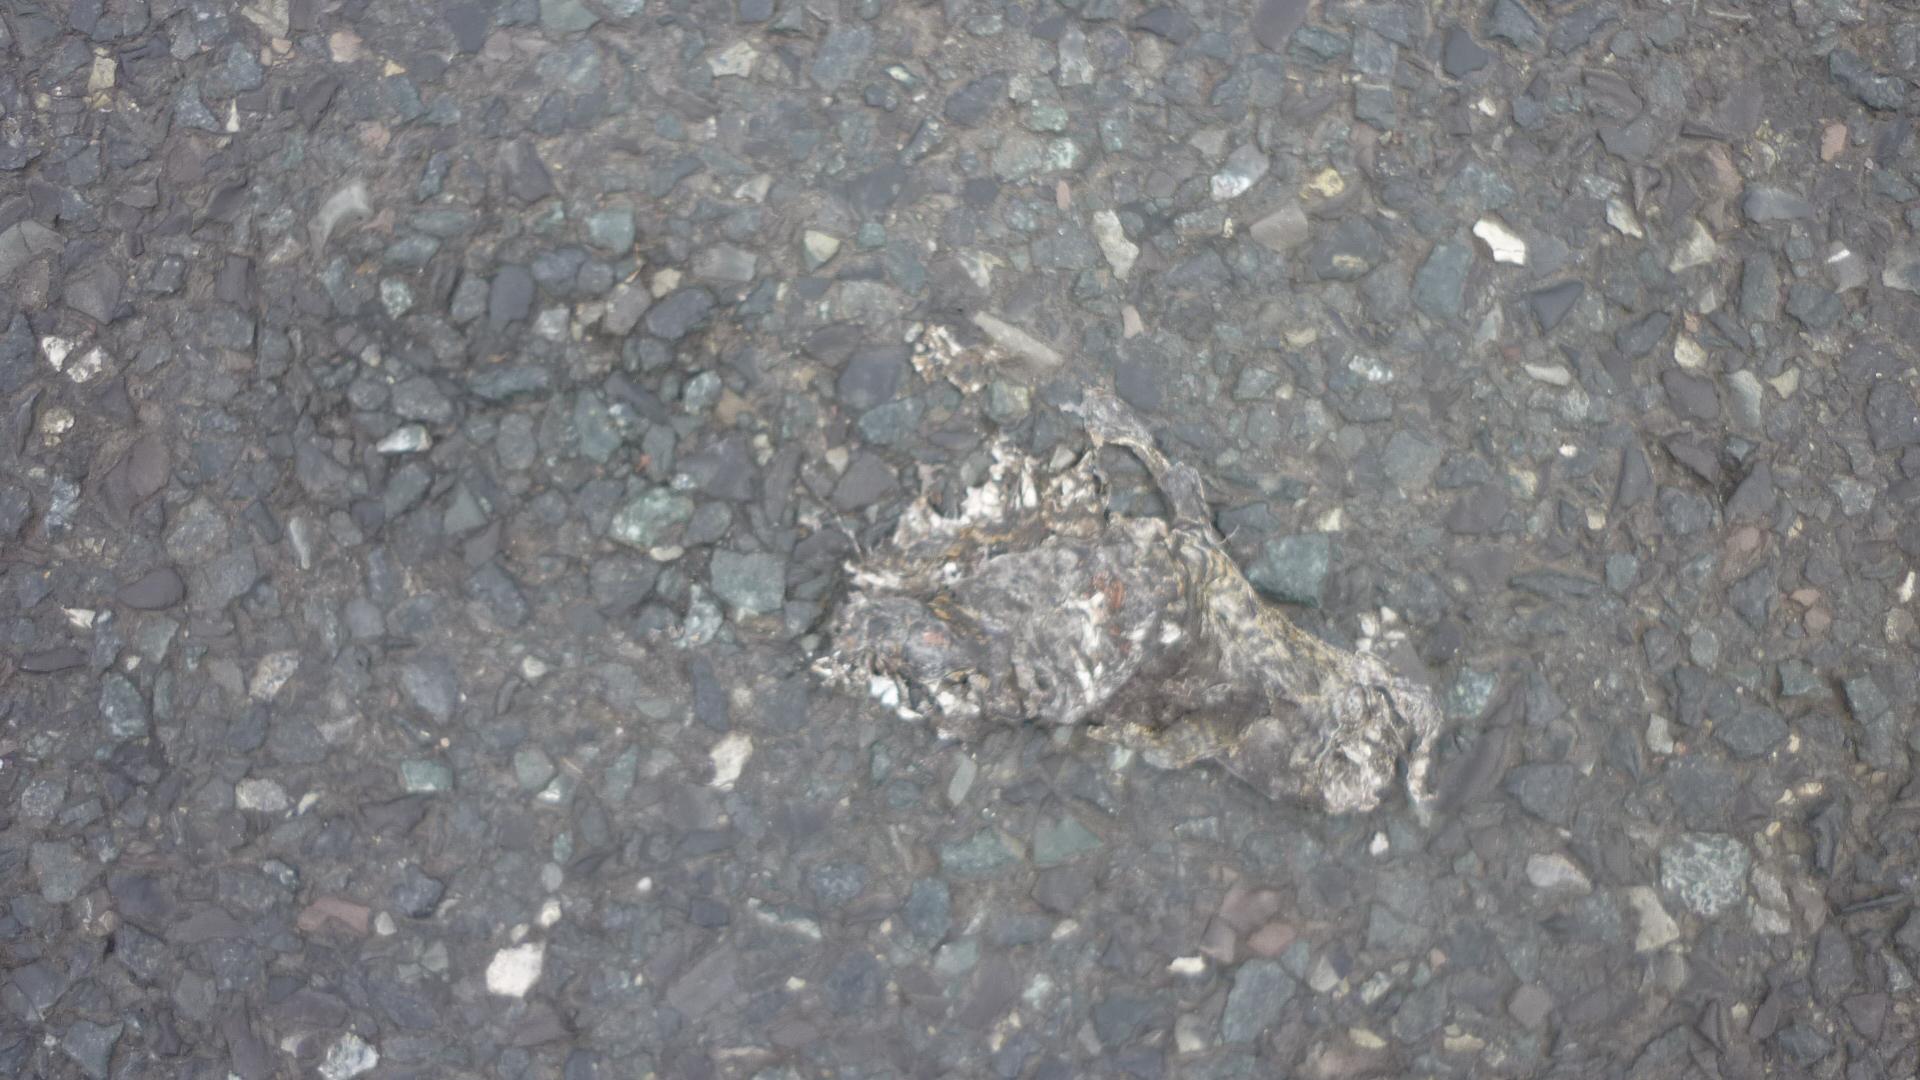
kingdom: Animalia
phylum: Chordata
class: Amphibia
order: Anura
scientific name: Anura
